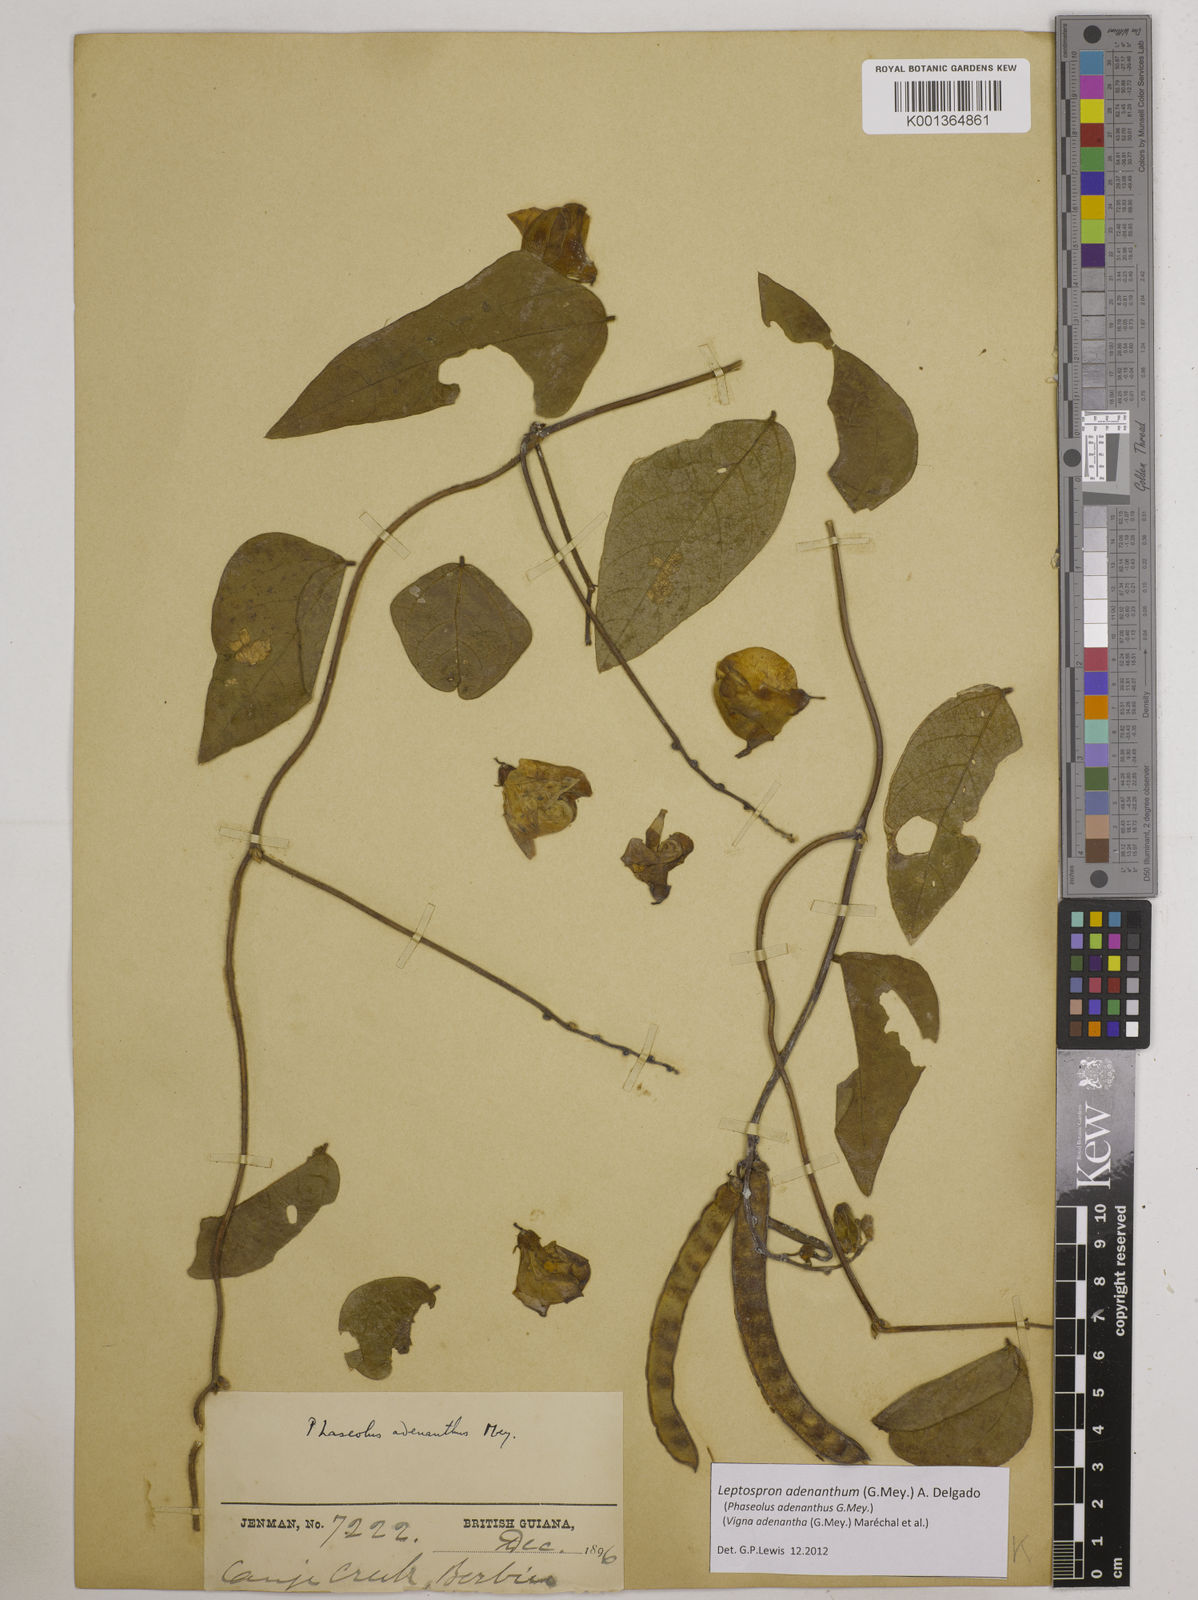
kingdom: Plantae
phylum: Tracheophyta
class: Magnoliopsida
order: Fabales
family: Fabaceae
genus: Leptospron
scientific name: Leptospron adenanthum
